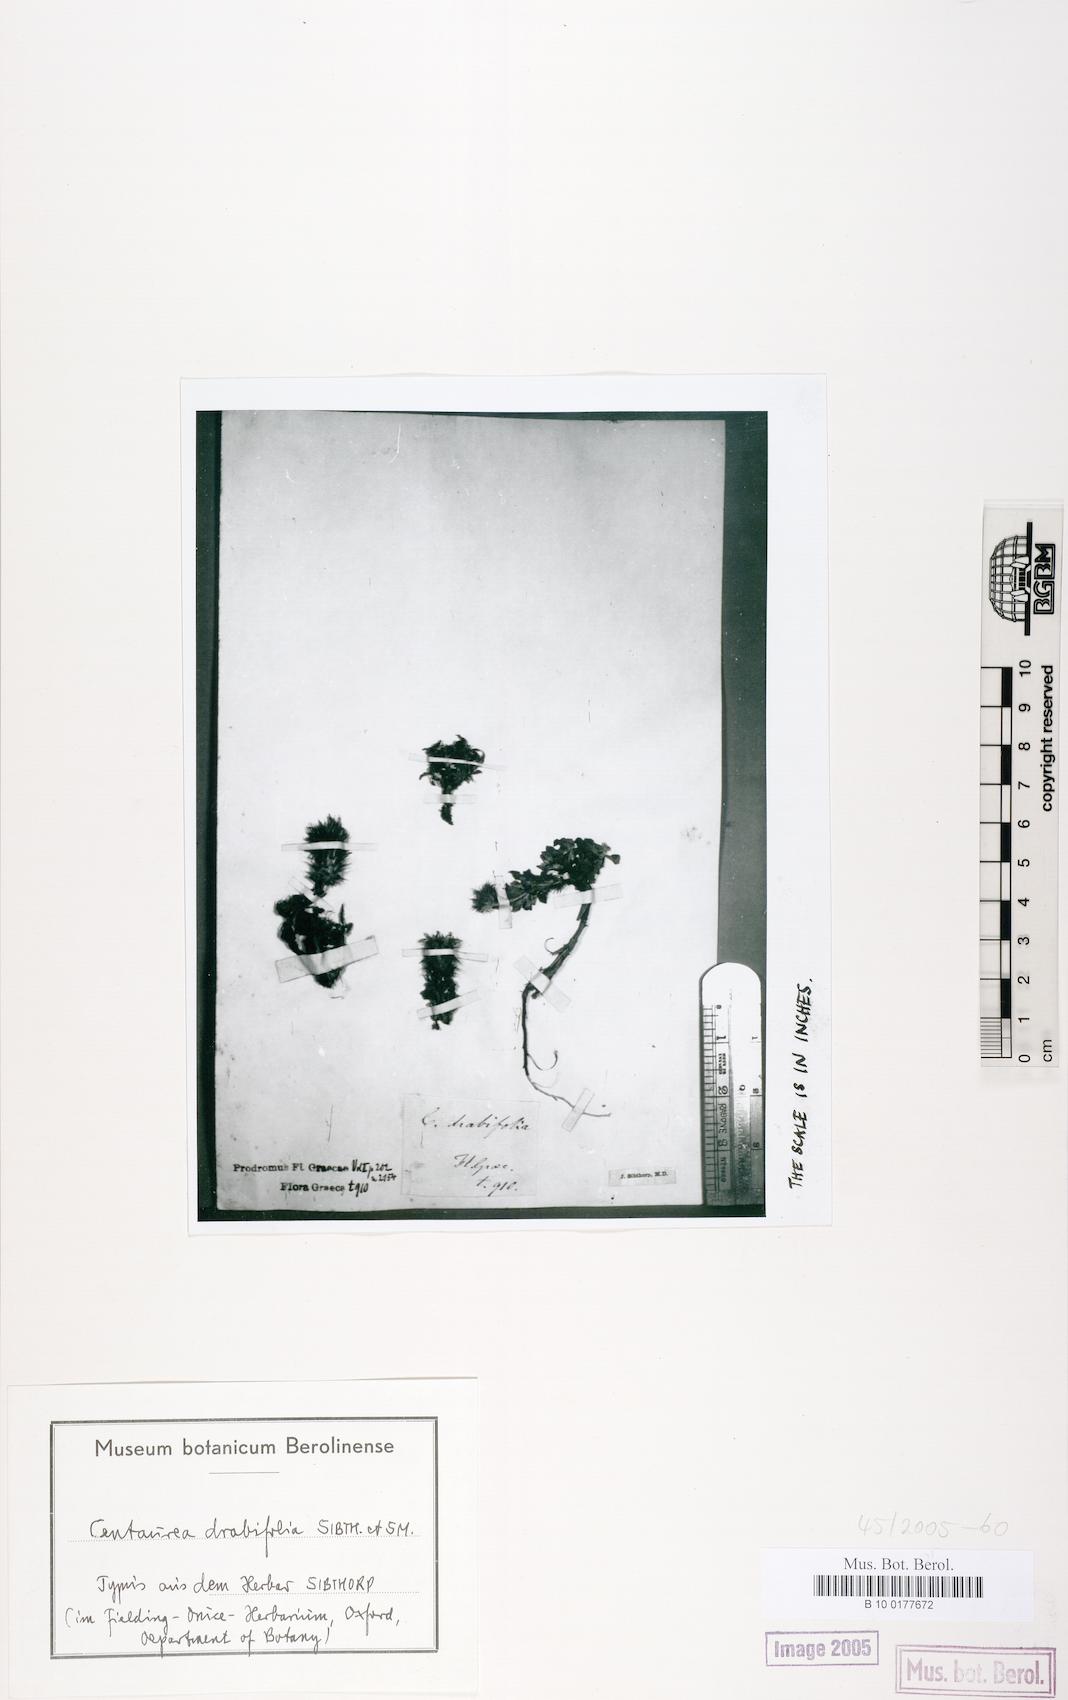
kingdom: Plantae
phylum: Tracheophyta
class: Magnoliopsida
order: Asterales
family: Asteraceae
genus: Centaurea
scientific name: Centaurea drabifolia
